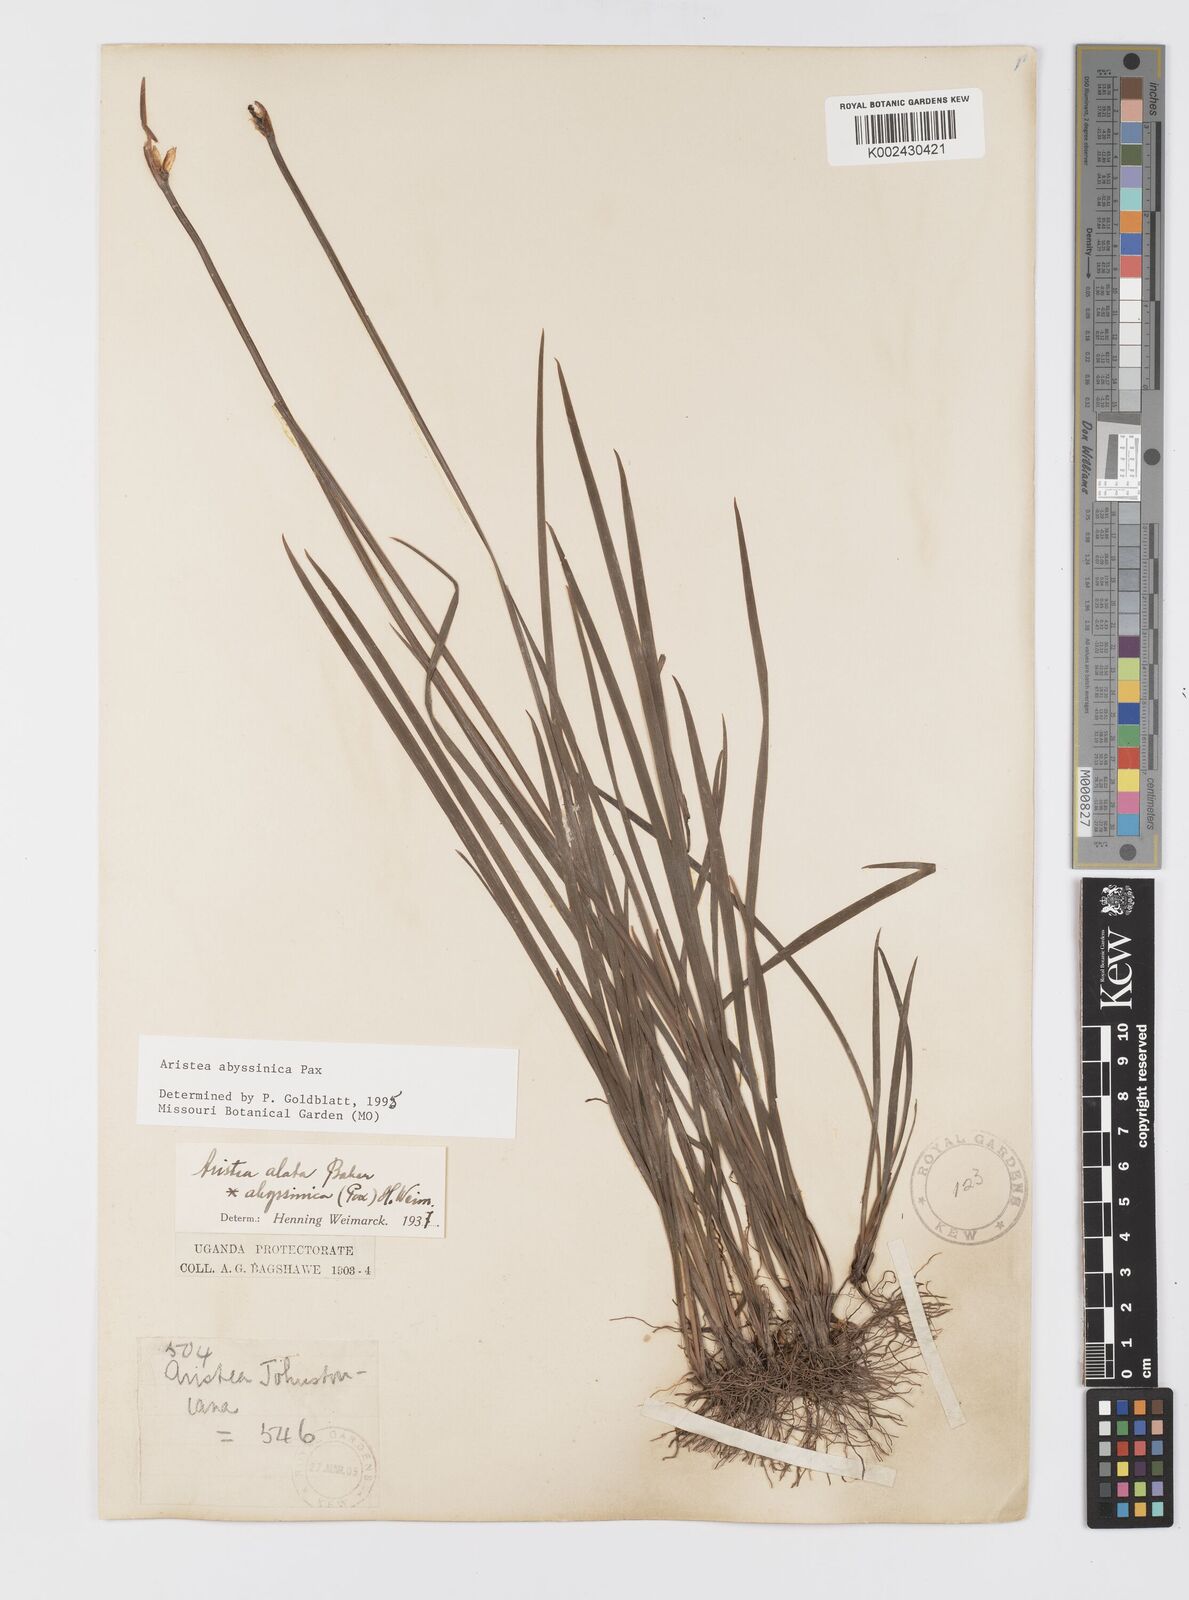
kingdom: Plantae
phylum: Tracheophyta
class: Liliopsida
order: Asparagales
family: Iridaceae
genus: Aristea
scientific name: Aristea abyssinica
